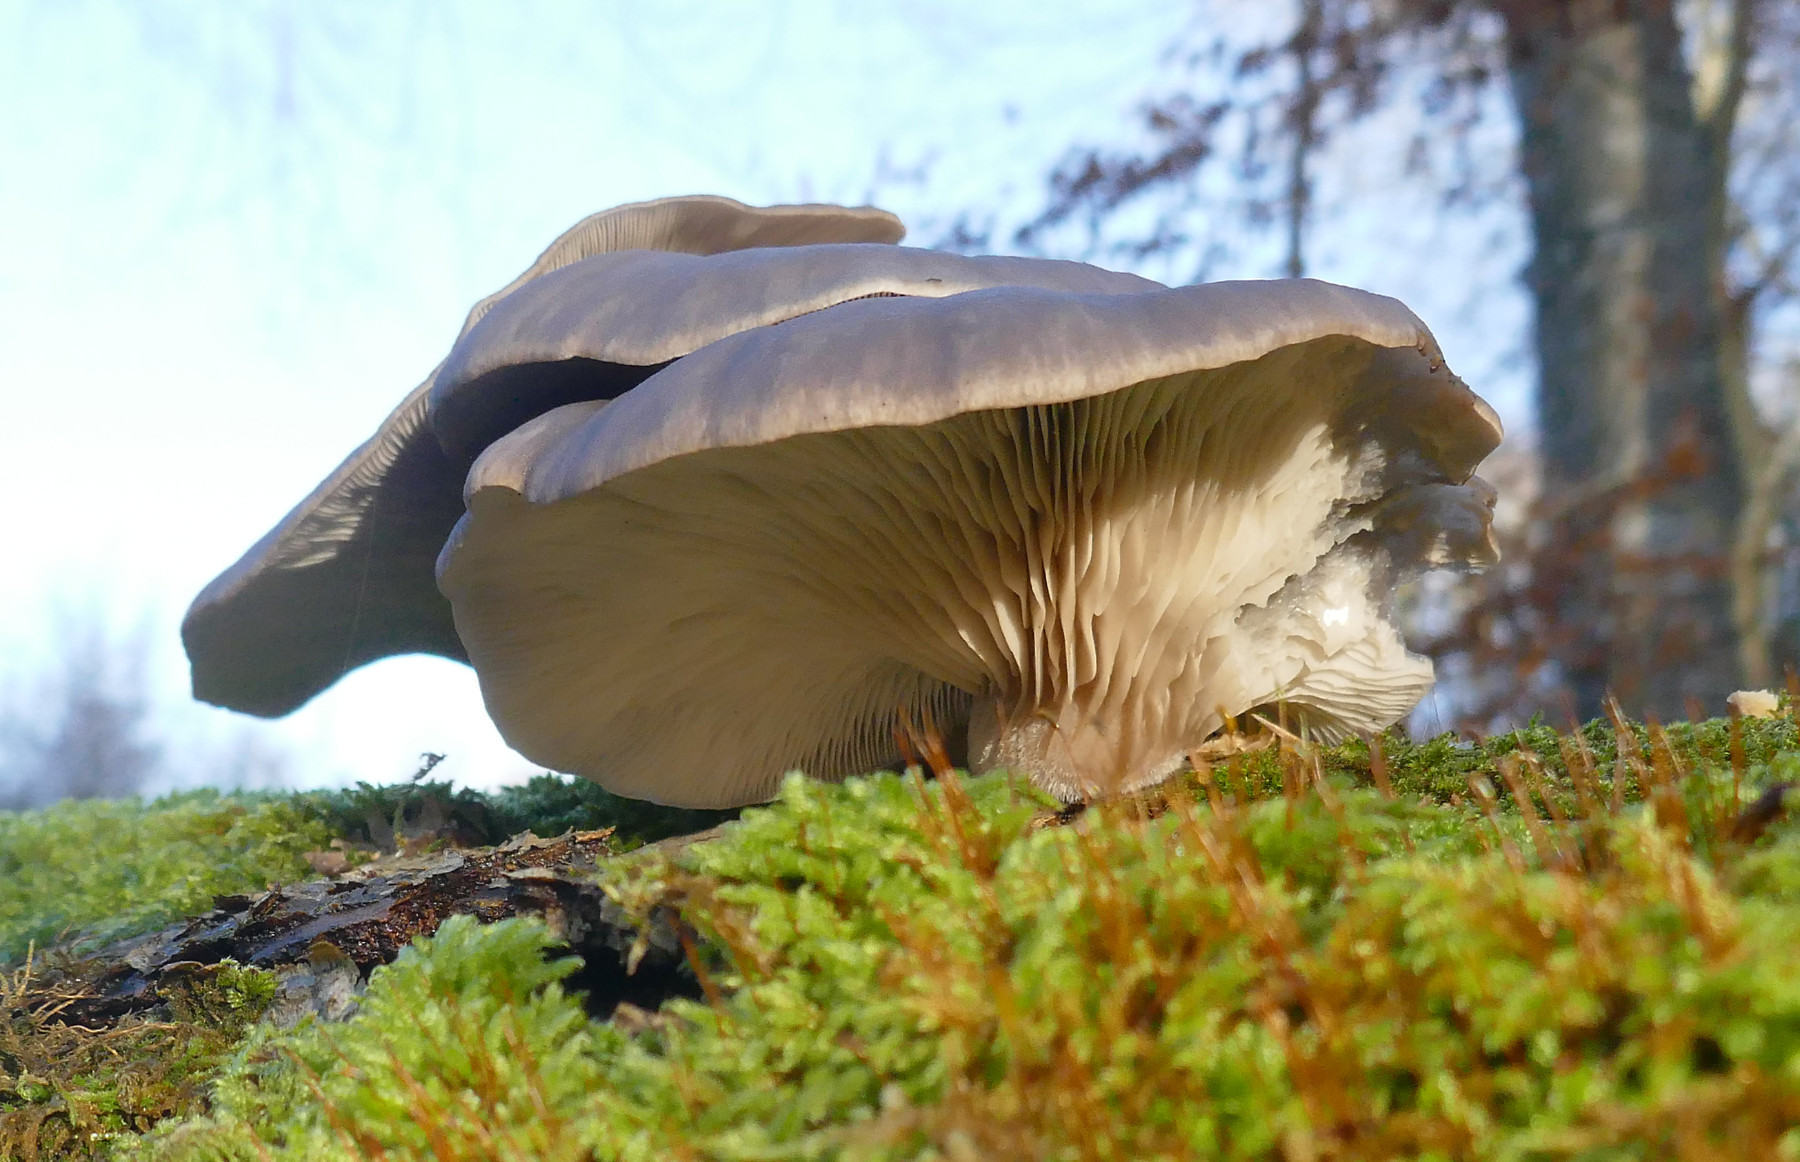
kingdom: Fungi
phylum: Basidiomycota
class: Agaricomycetes
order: Agaricales
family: Pleurotaceae
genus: Pleurotus
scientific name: Pleurotus ostreatus
